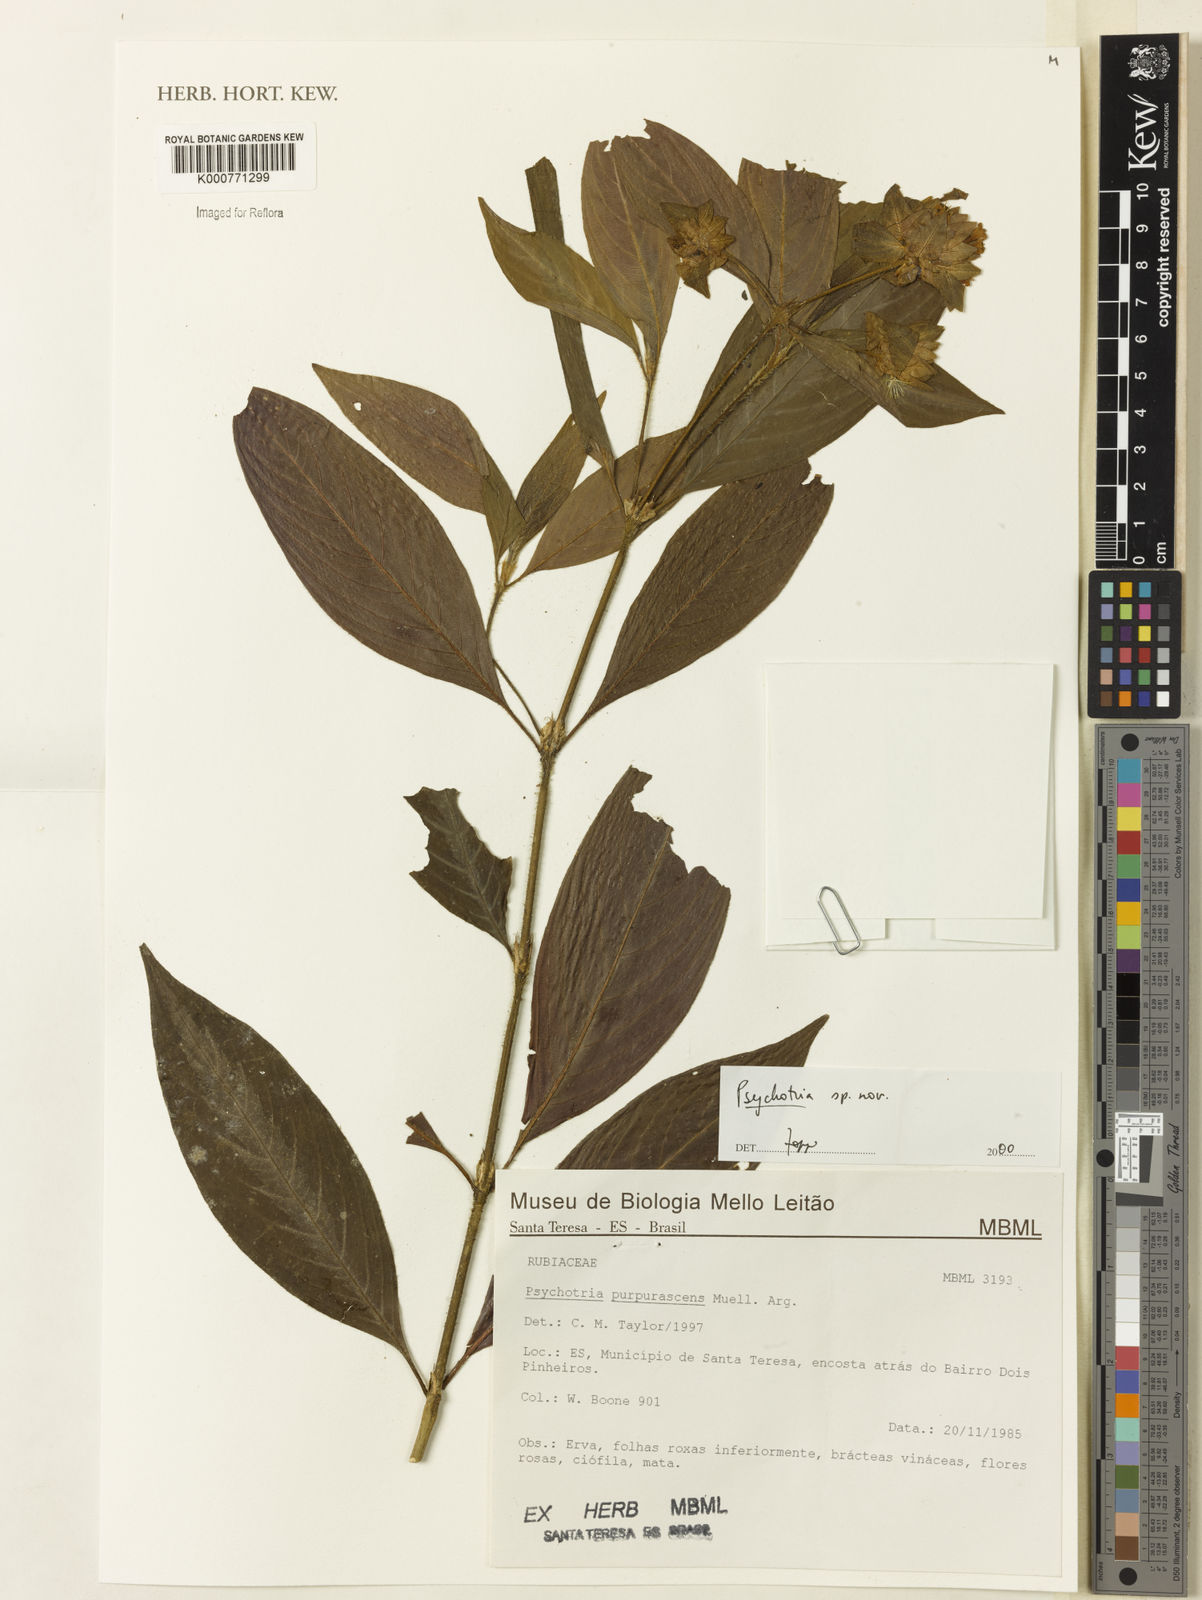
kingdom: Plantae
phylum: Tracheophyta
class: Magnoliopsida
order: Gentianales
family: Rubiaceae
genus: Psychotria
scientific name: Psychotria
